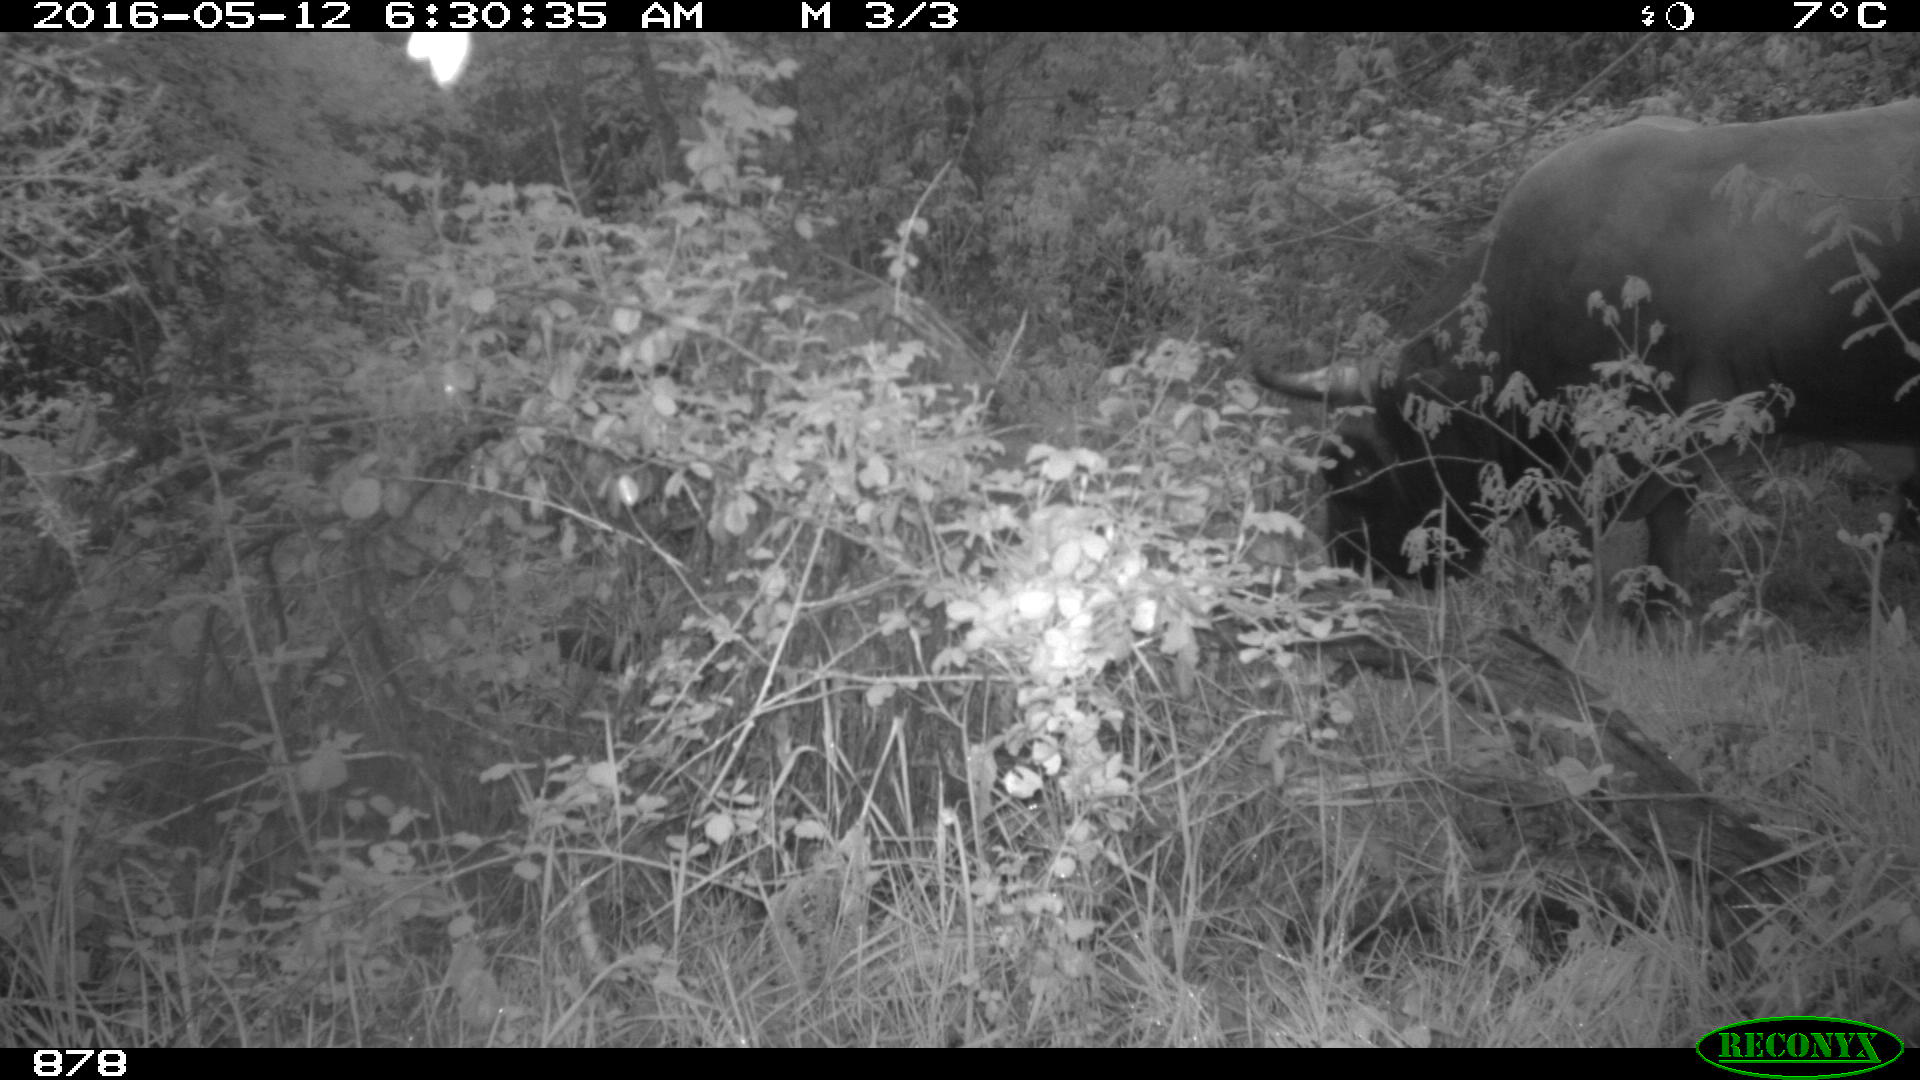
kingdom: Animalia
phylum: Chordata
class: Mammalia
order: Artiodactyla
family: Bovidae
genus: Bos
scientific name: Bos taurus
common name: Domesticated cattle
